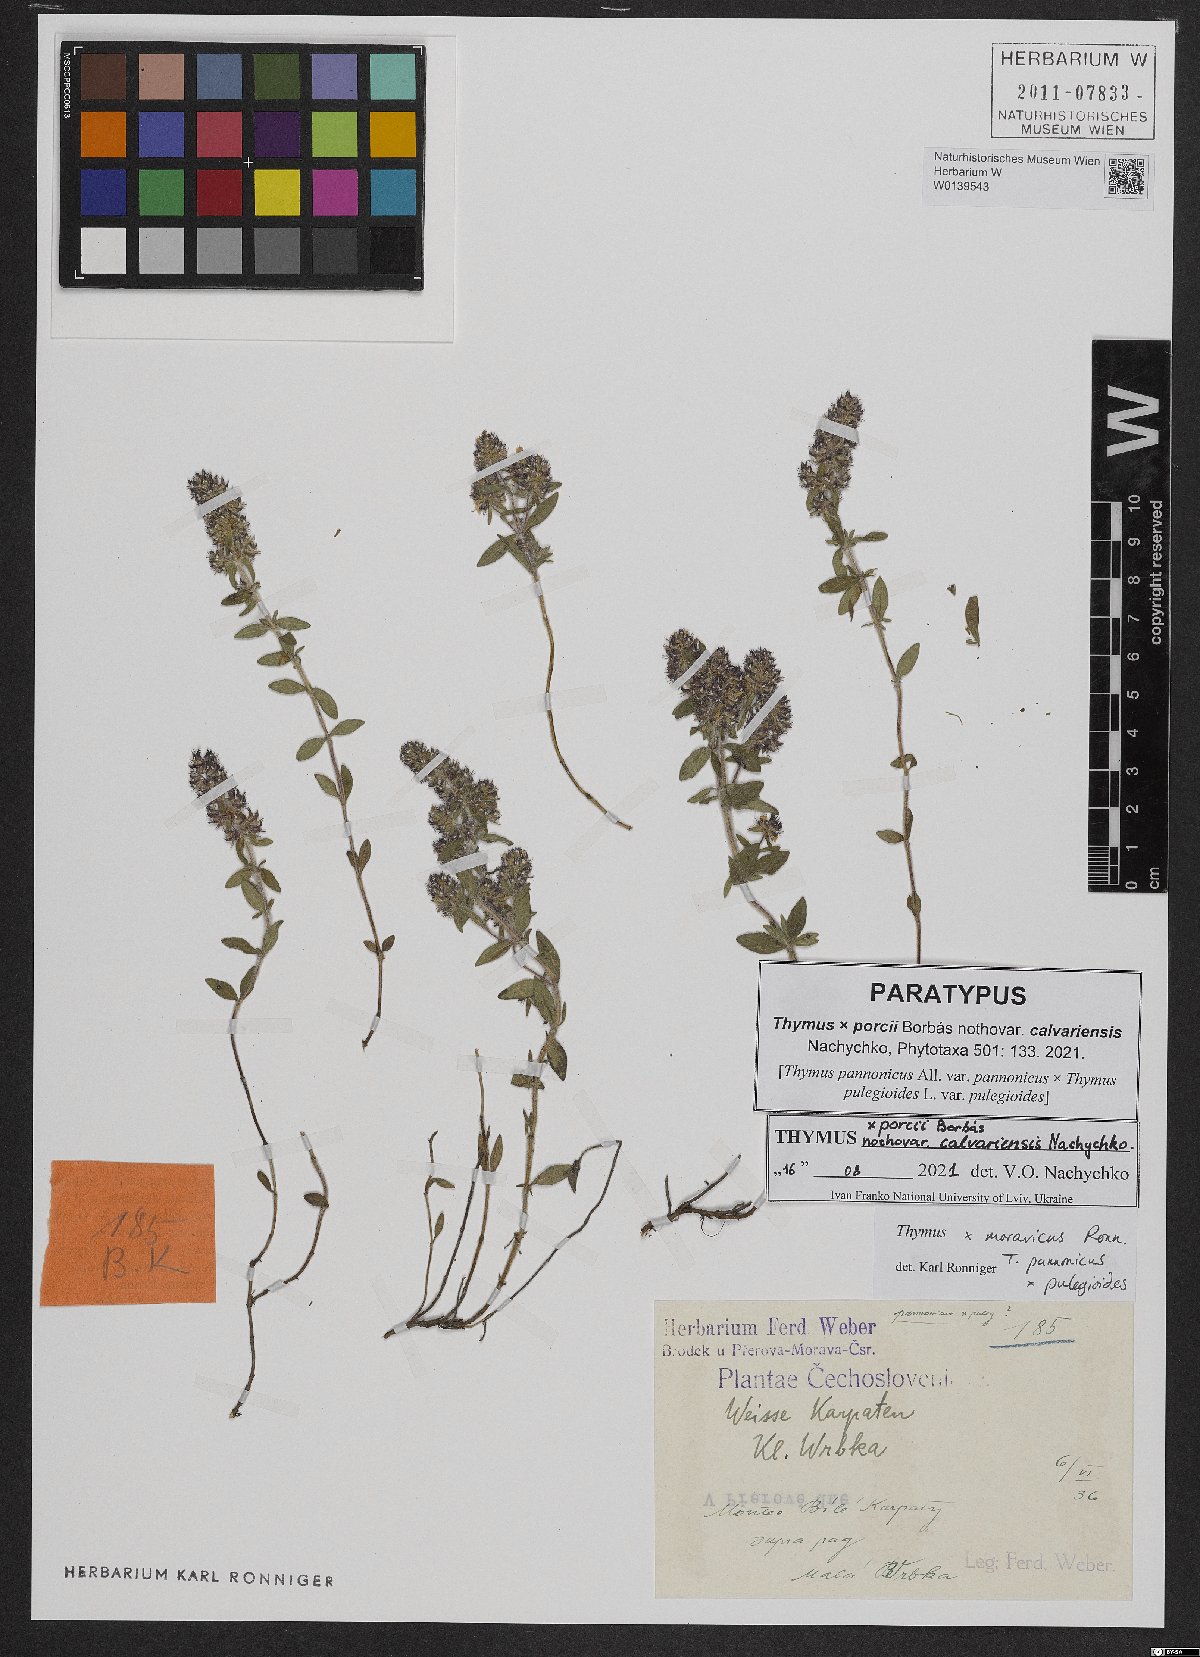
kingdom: Plantae
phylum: Tracheophyta
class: Magnoliopsida
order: Lamiales
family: Lamiaceae
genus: Thymus
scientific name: Thymus porcii
